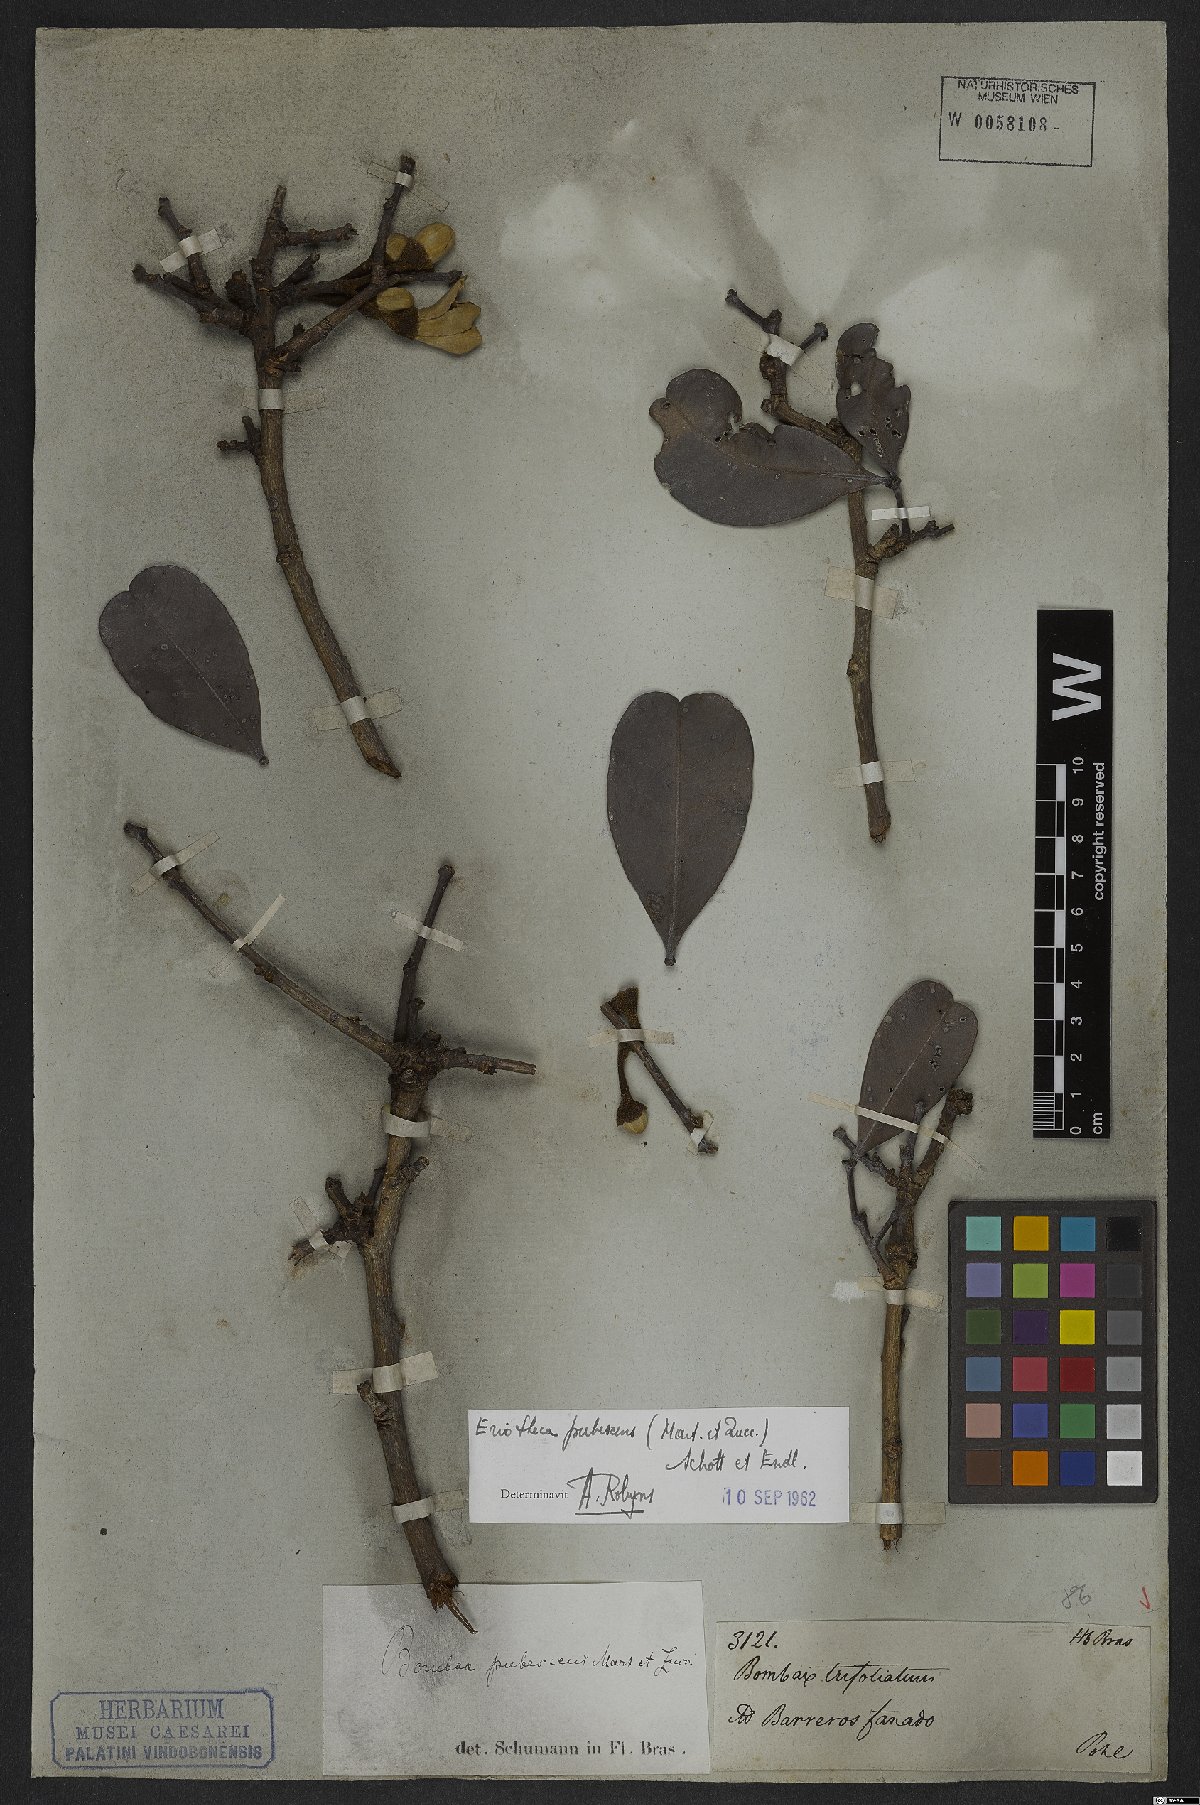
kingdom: Plantae
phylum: Tracheophyta
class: Magnoliopsida
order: Malvales
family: Malvaceae
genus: Eriotheca
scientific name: Eriotheca pubescens
